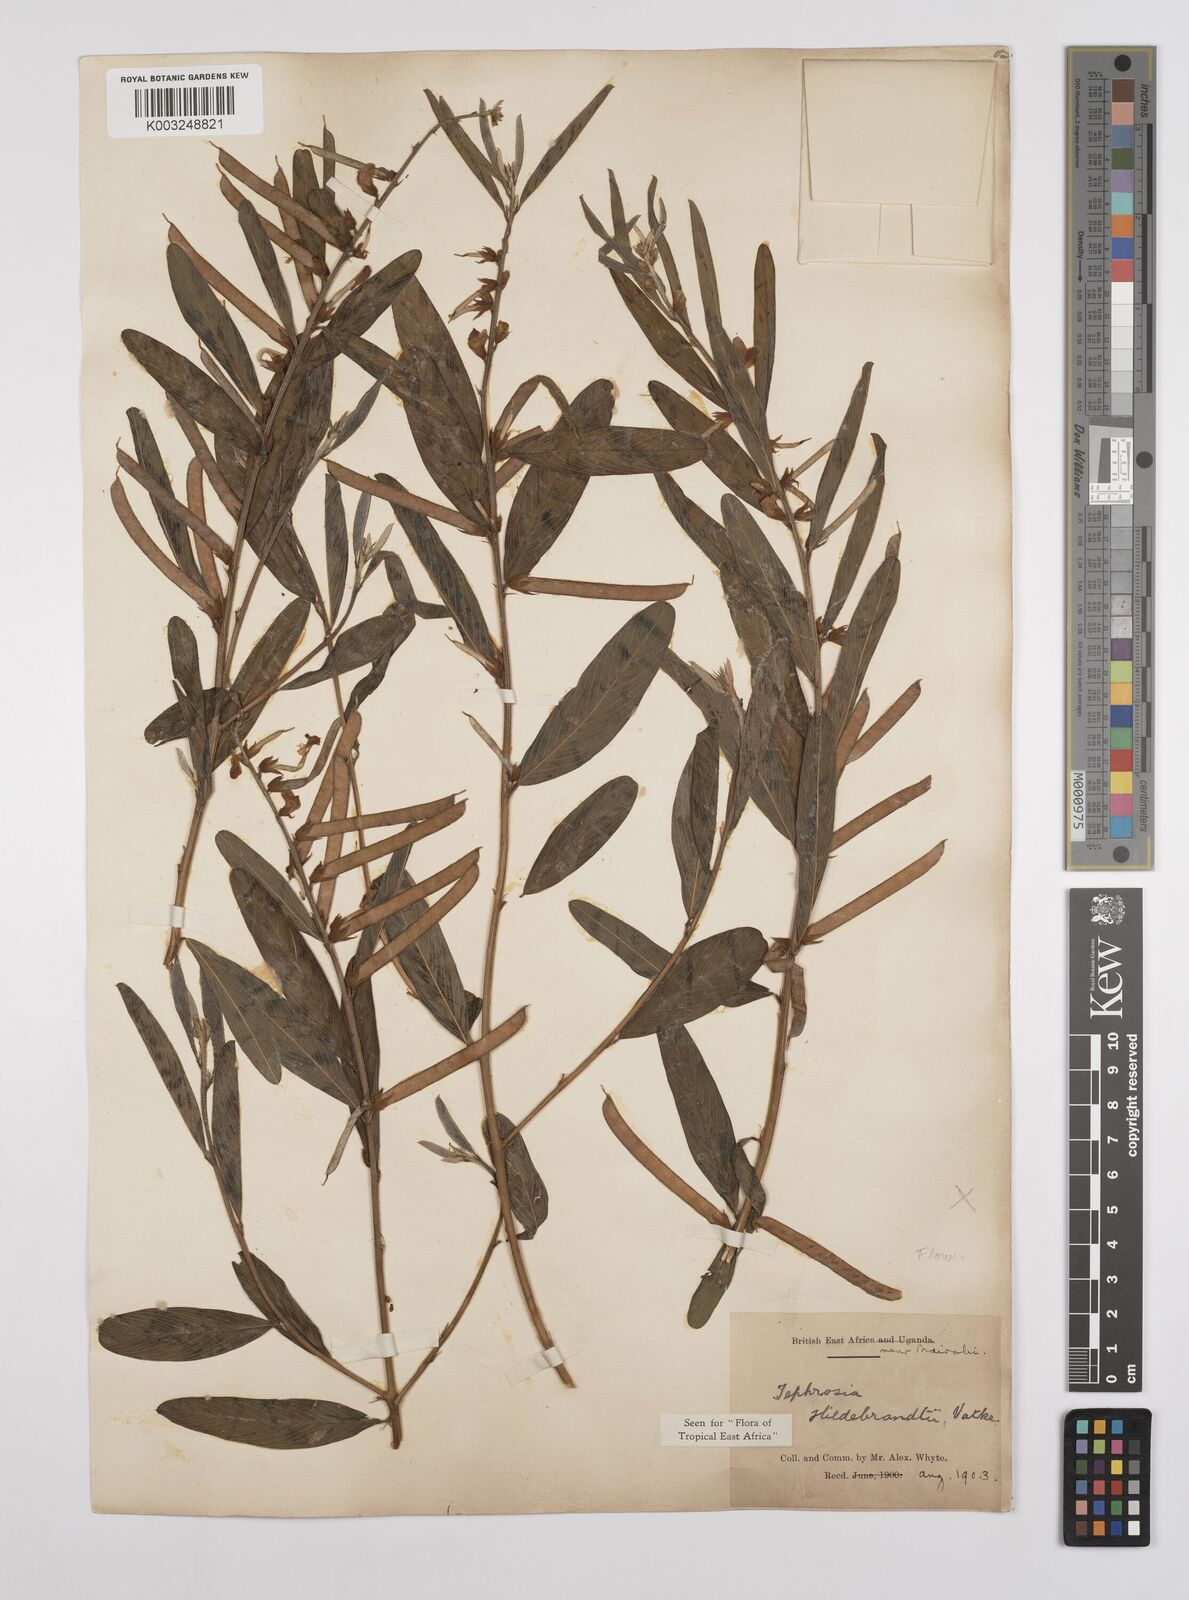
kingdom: Plantae
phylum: Tracheophyta
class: Magnoliopsida
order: Fabales
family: Fabaceae
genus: Tephrosia
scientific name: Tephrosia hildebrandtii
